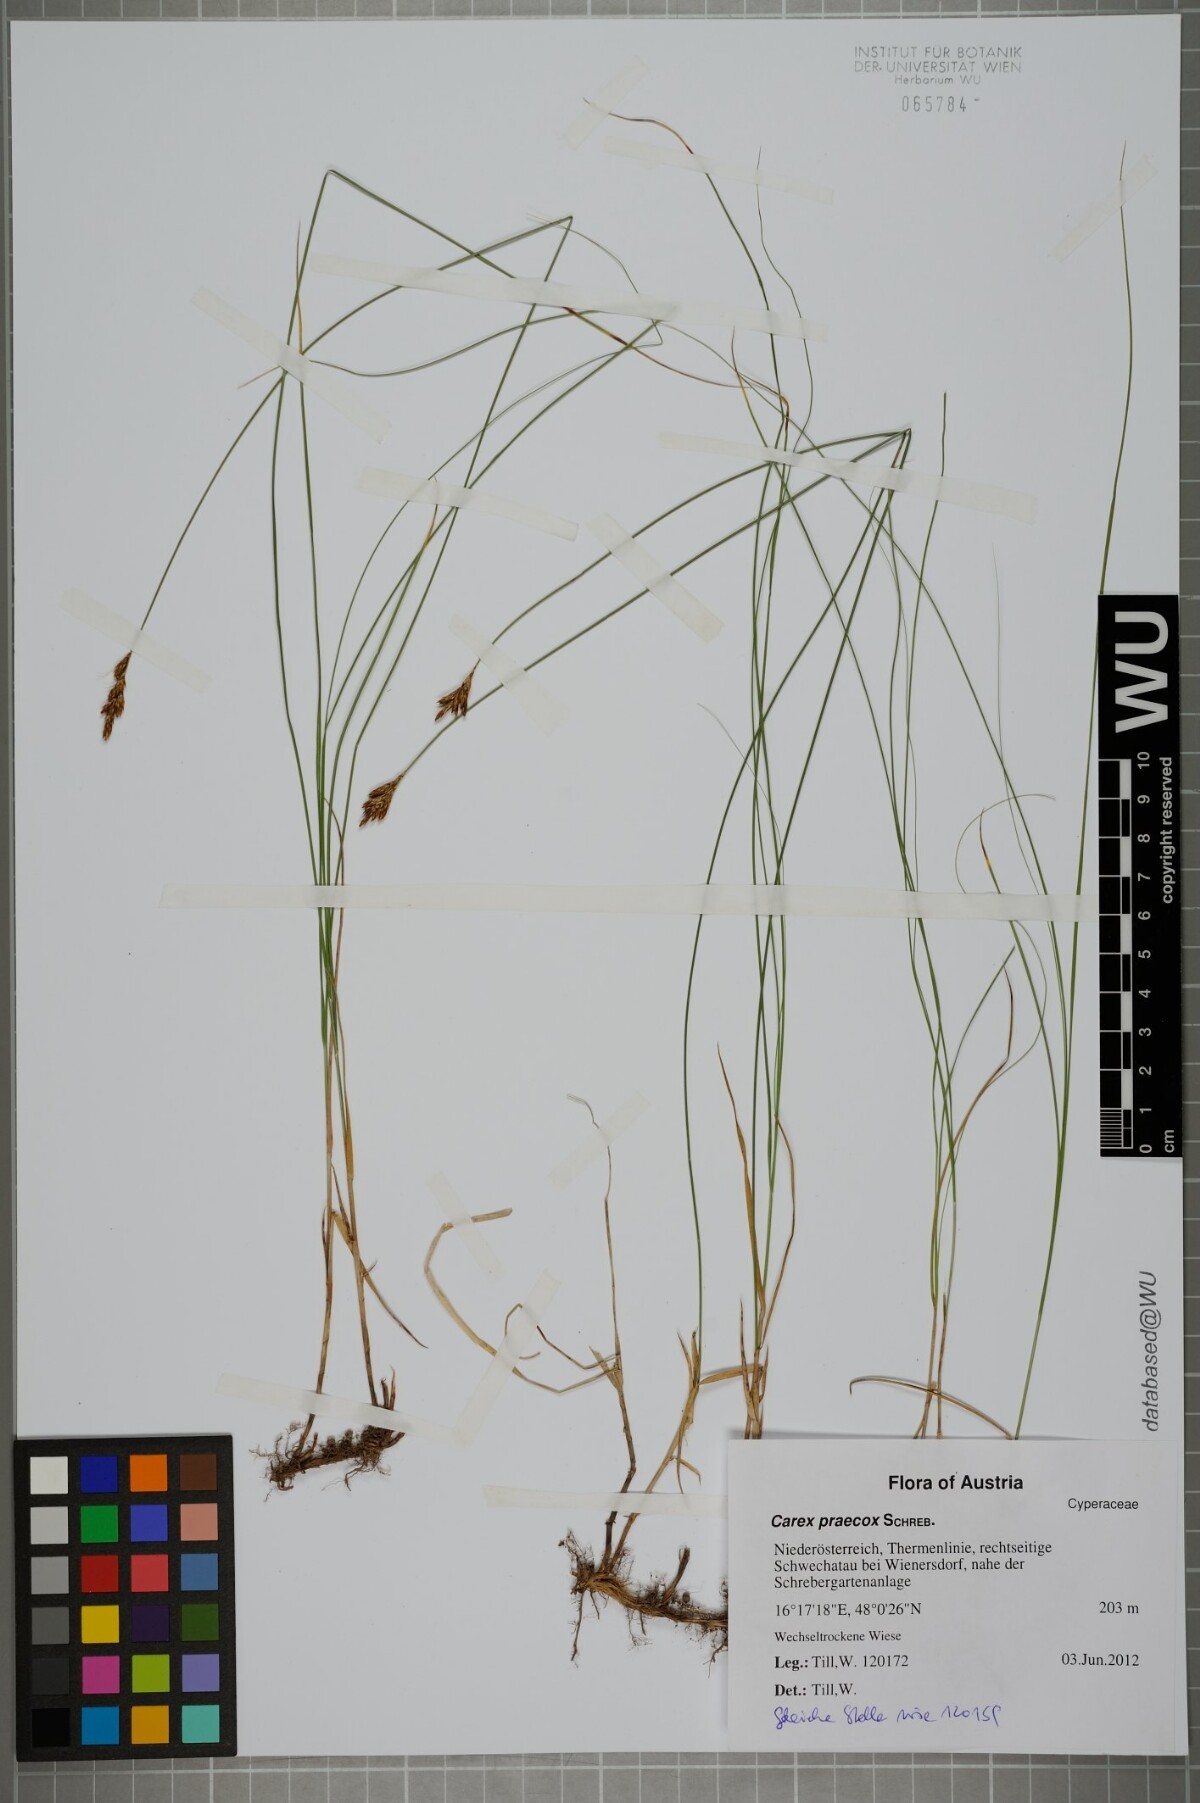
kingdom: Plantae
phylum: Tracheophyta
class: Liliopsida
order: Poales
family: Cyperaceae
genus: Carex
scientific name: Carex praecox
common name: Early sedge
